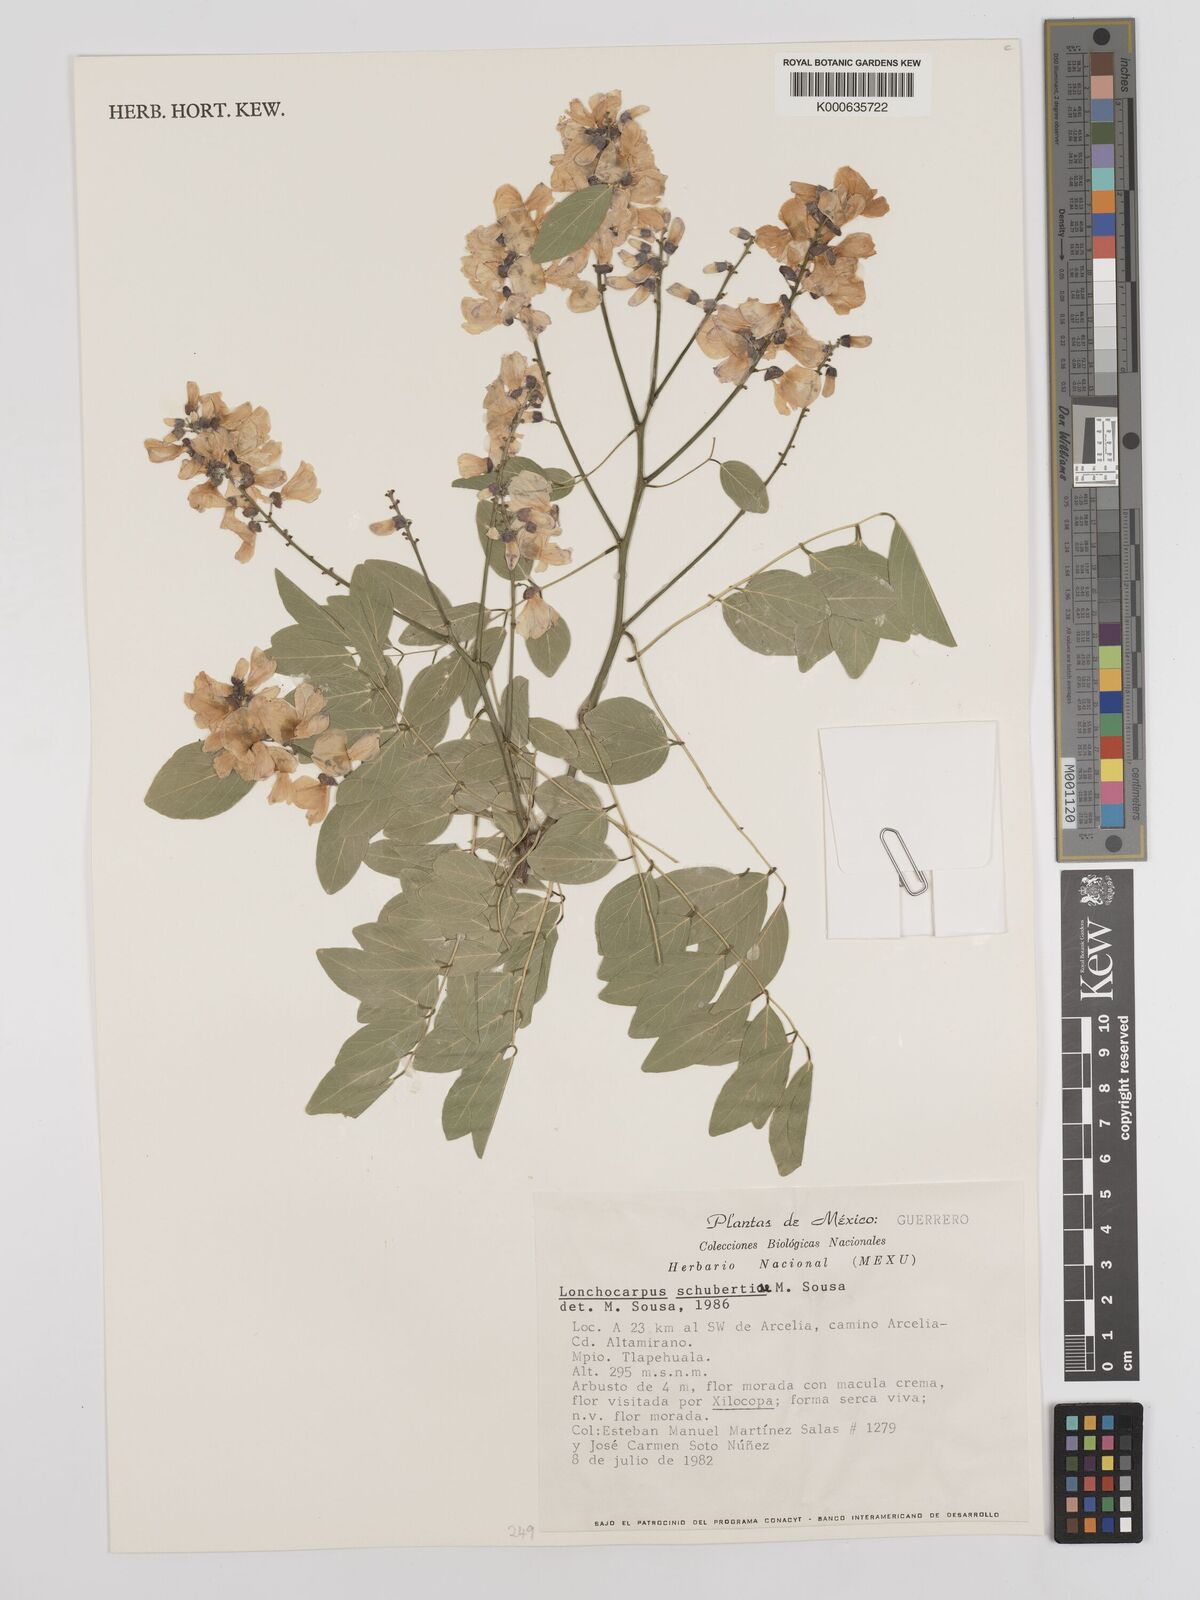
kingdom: Plantae
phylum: Tracheophyta
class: Magnoliopsida
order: Fabales
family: Fabaceae
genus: Lonchocarpus
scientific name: Lonchocarpus schubertiae
